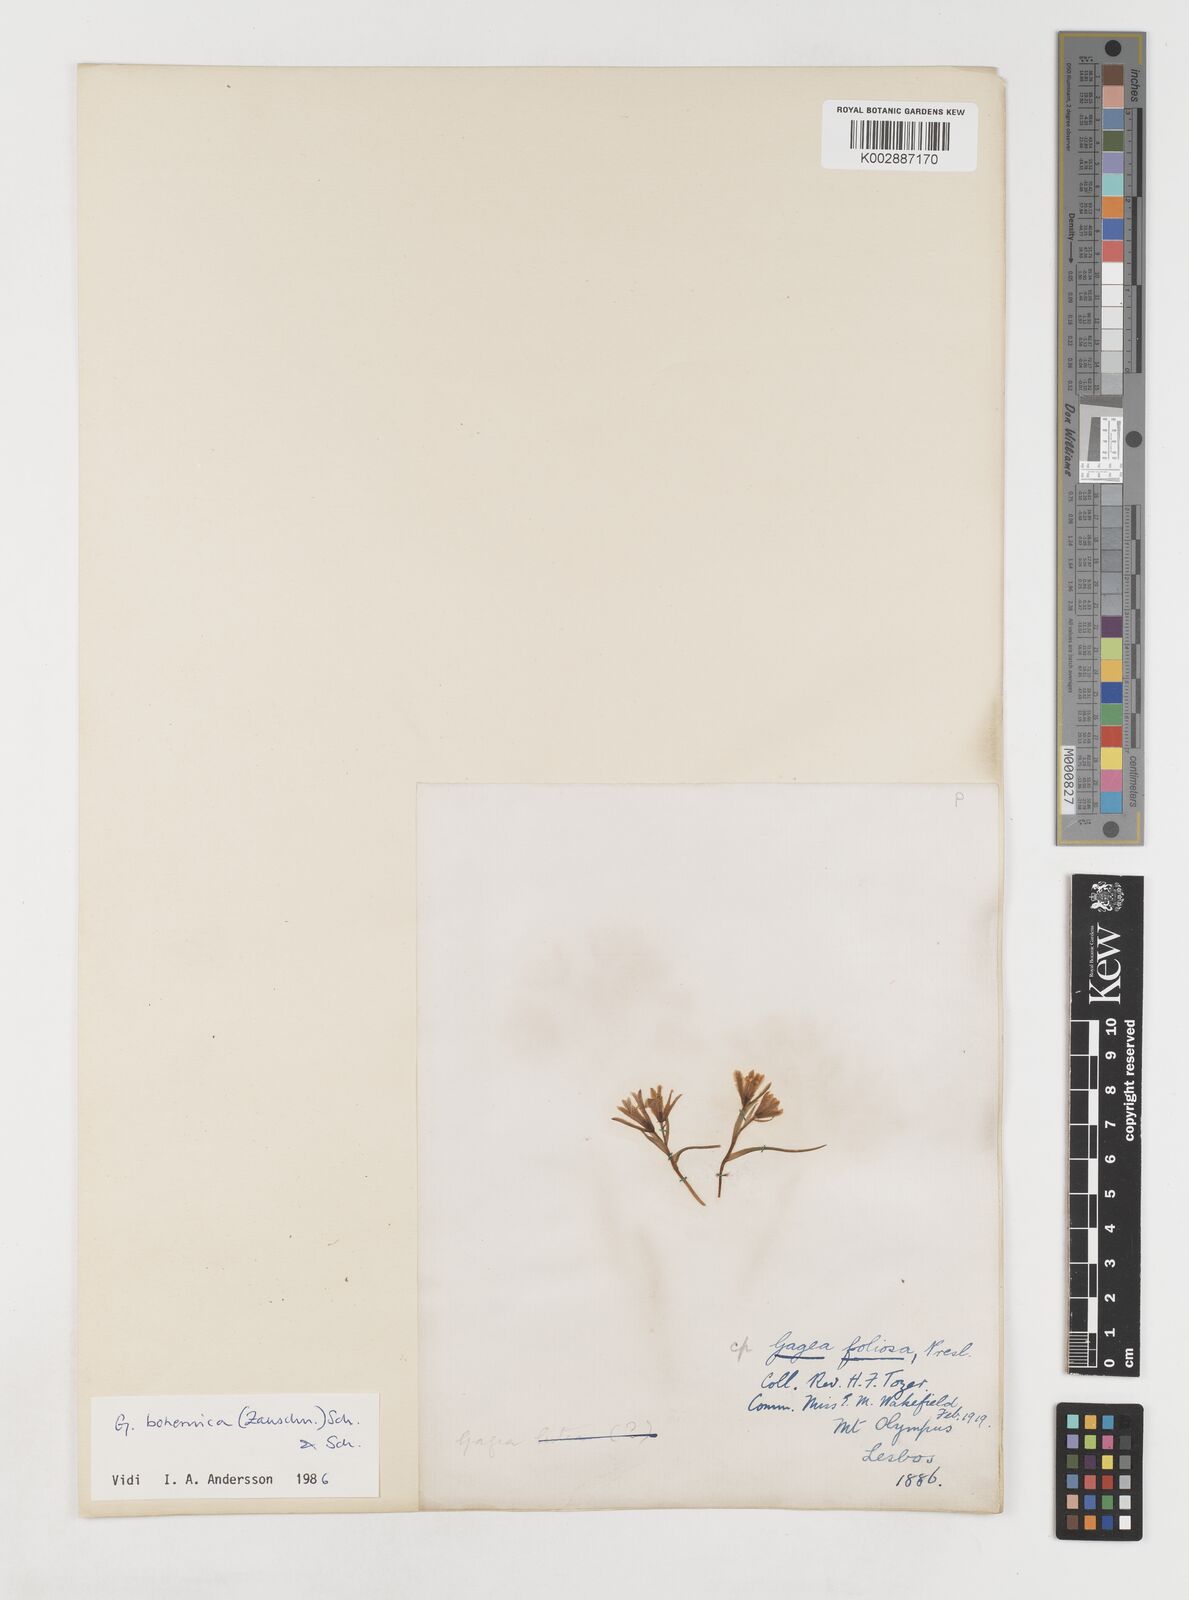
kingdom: Plantae
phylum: Tracheophyta
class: Liliopsida
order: Liliales
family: Liliaceae
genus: Gagea
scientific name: Gagea peduncularis
